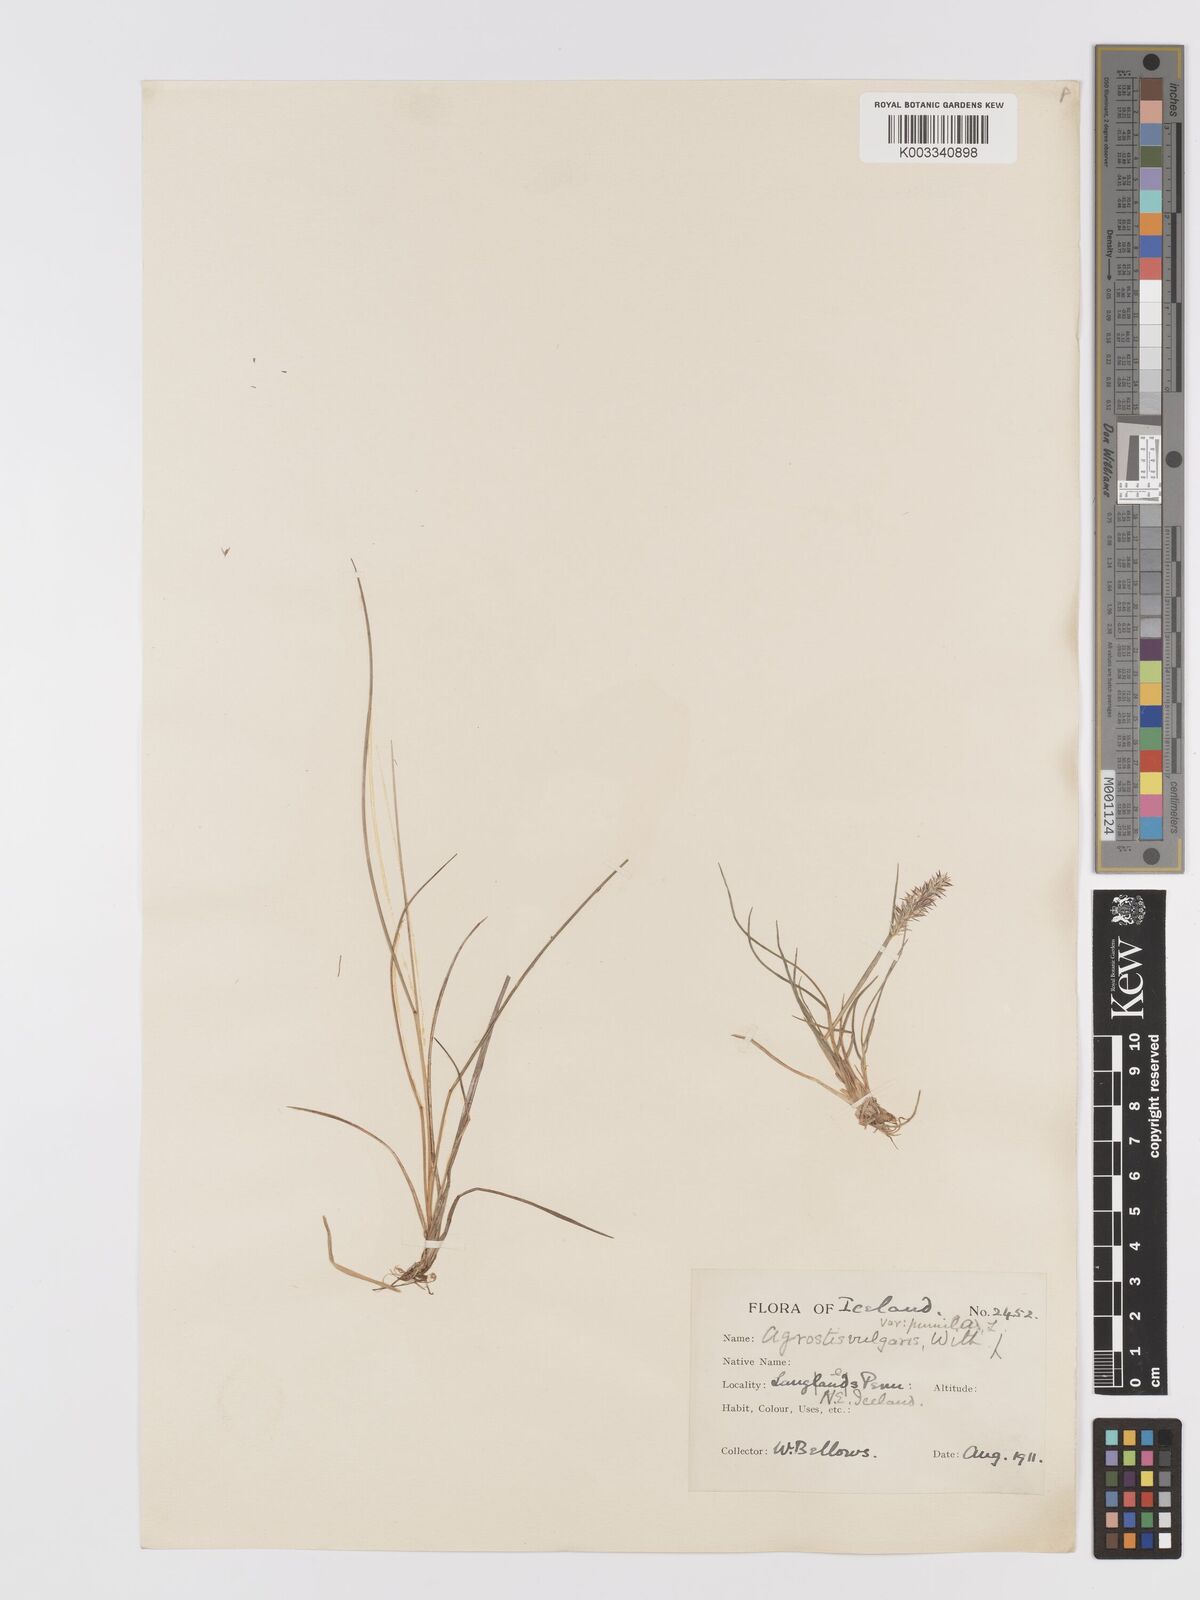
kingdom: Plantae
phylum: Tracheophyta
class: Liliopsida
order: Poales
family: Poaceae
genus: Agrostis
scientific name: Agrostis capillaris
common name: Colonial bentgrass
